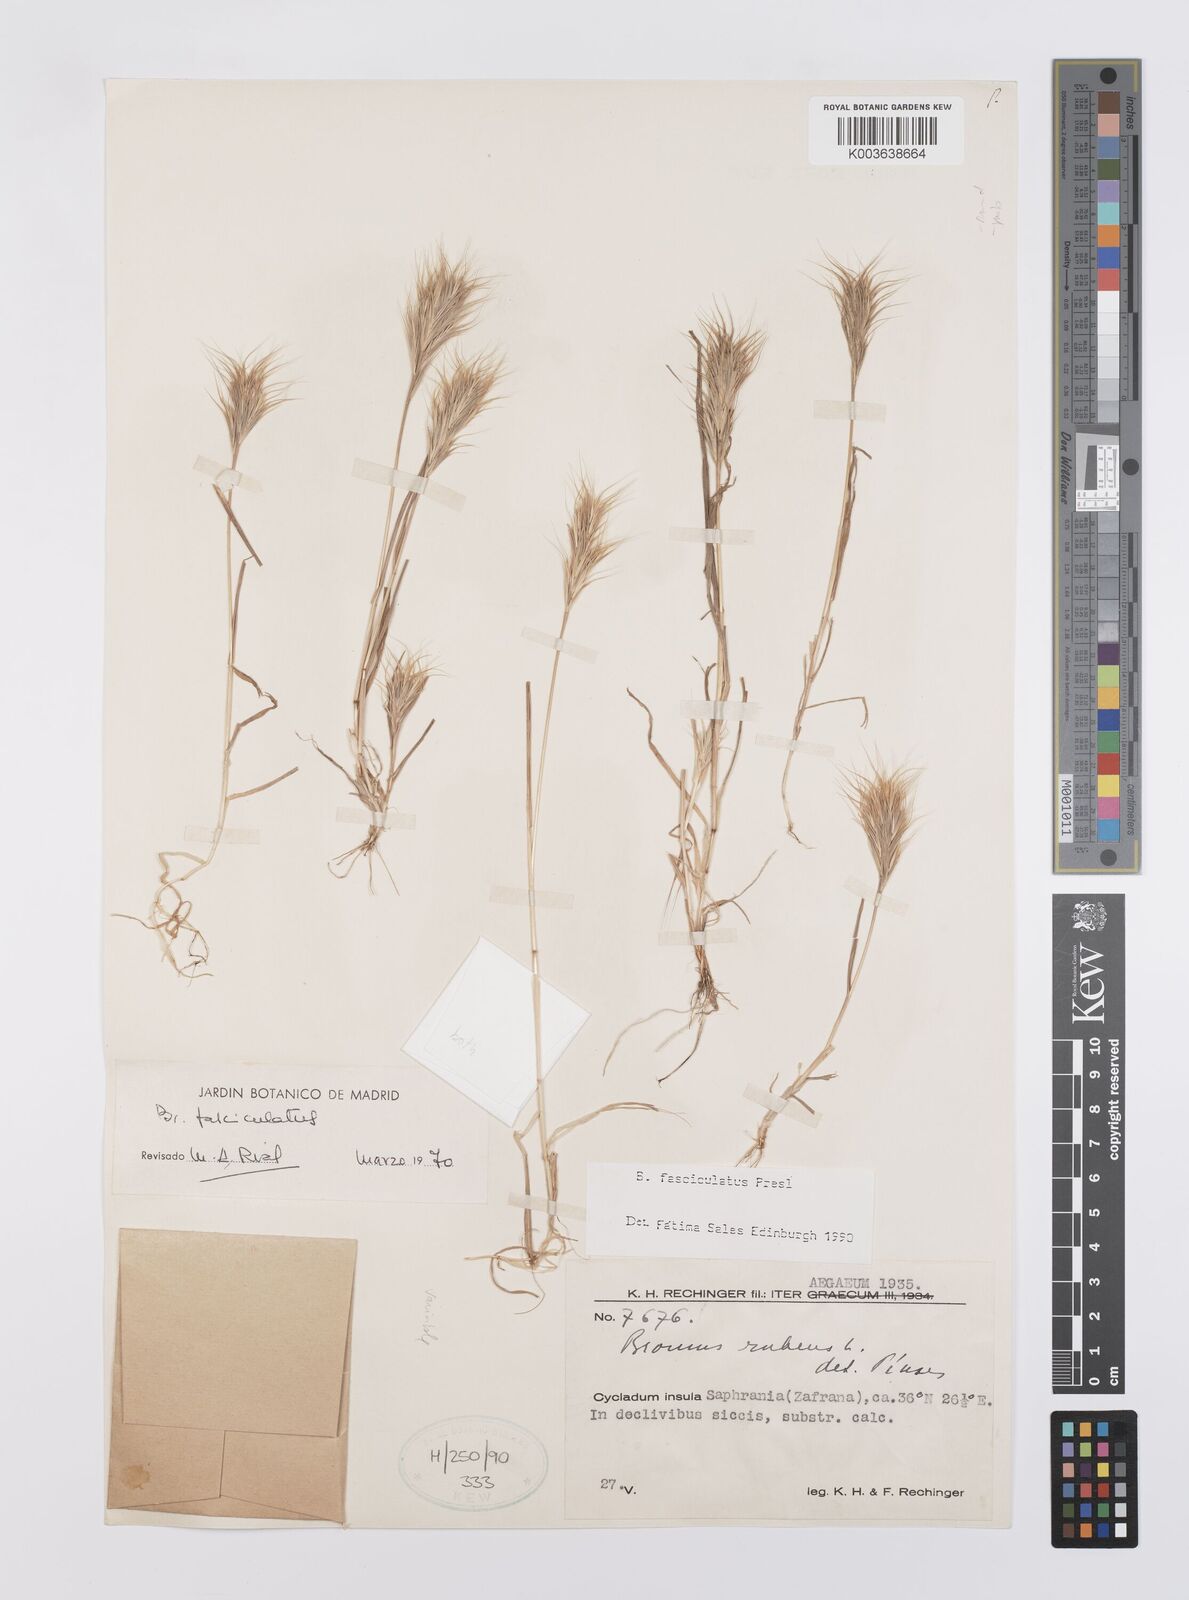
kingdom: Plantae
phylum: Tracheophyta
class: Liliopsida
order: Poales
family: Poaceae
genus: Bromus
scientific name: Bromus fasciculatus
